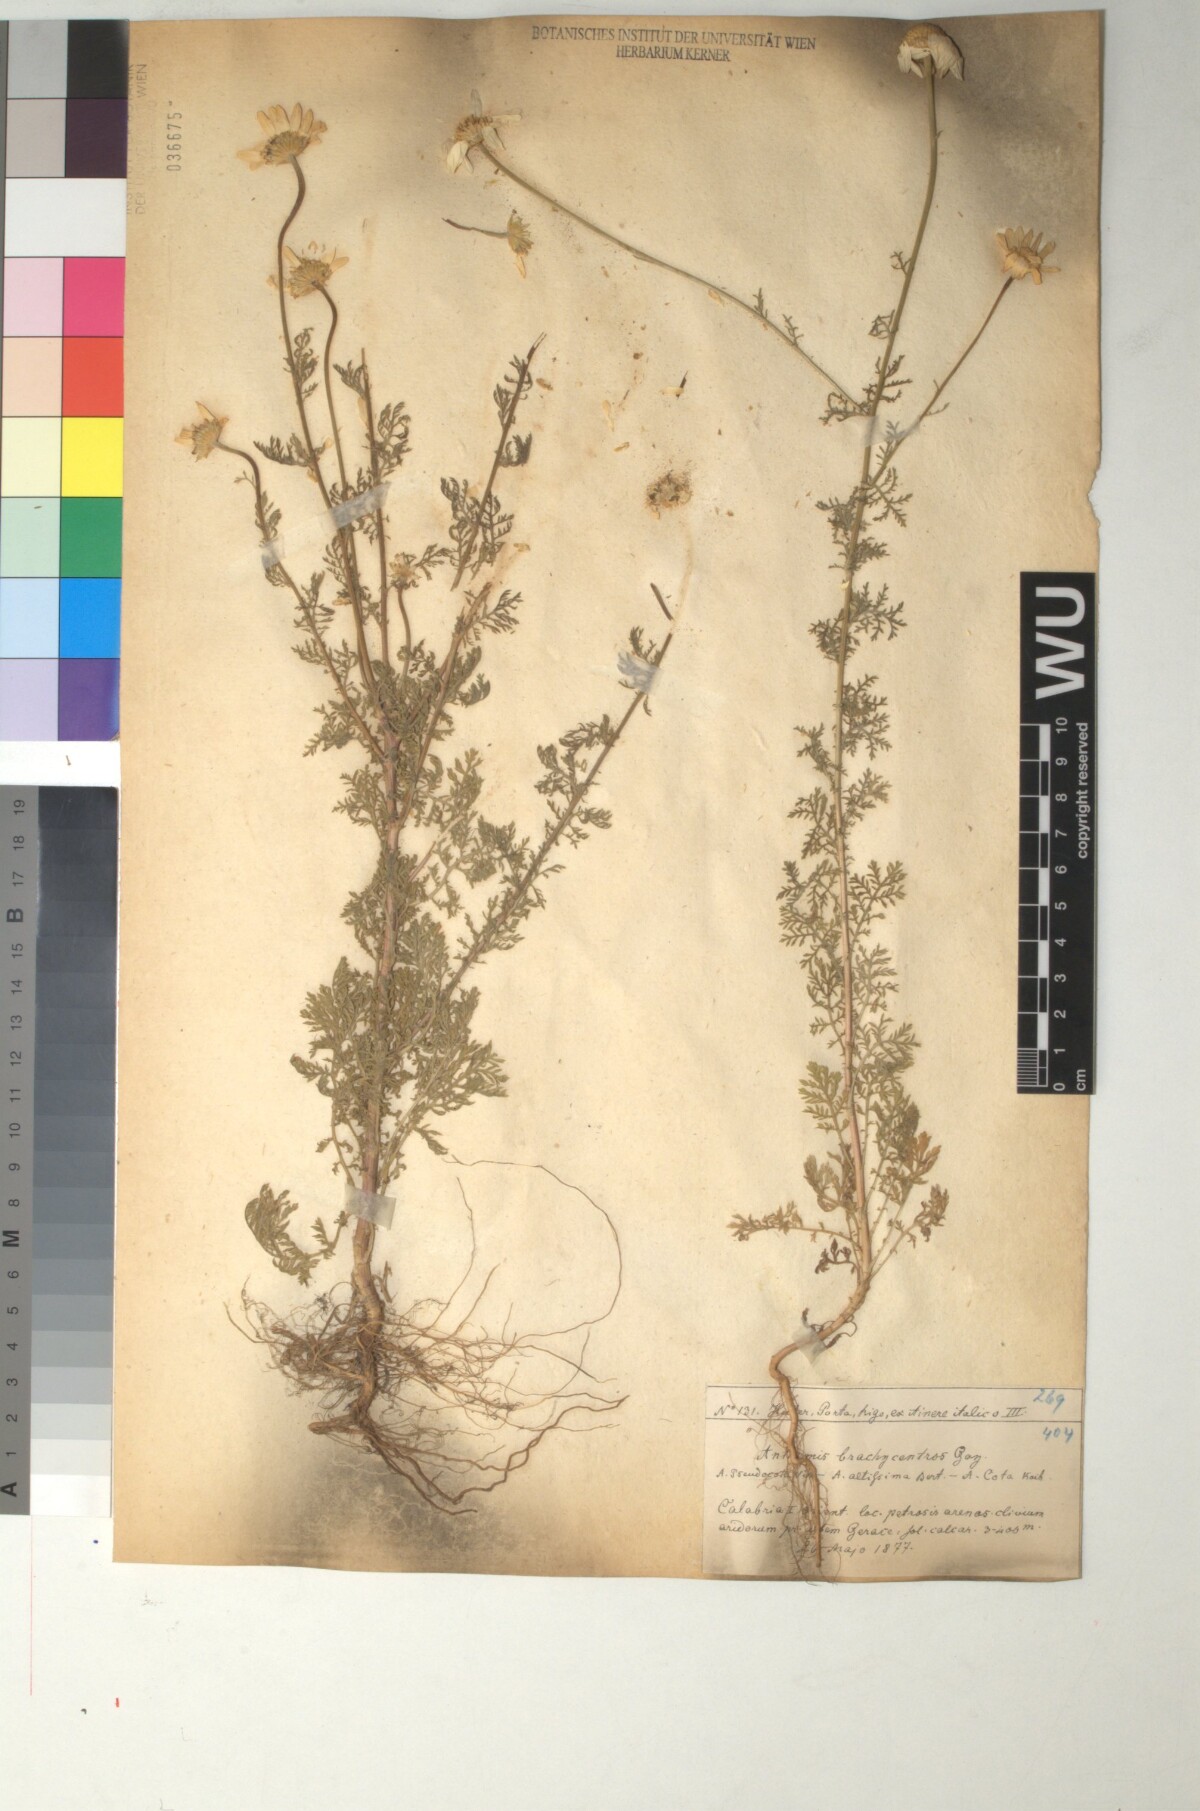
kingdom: Plantae
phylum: Tracheophyta
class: Magnoliopsida
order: Asterales
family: Asteraceae
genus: Cota
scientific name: Cota segetalis
